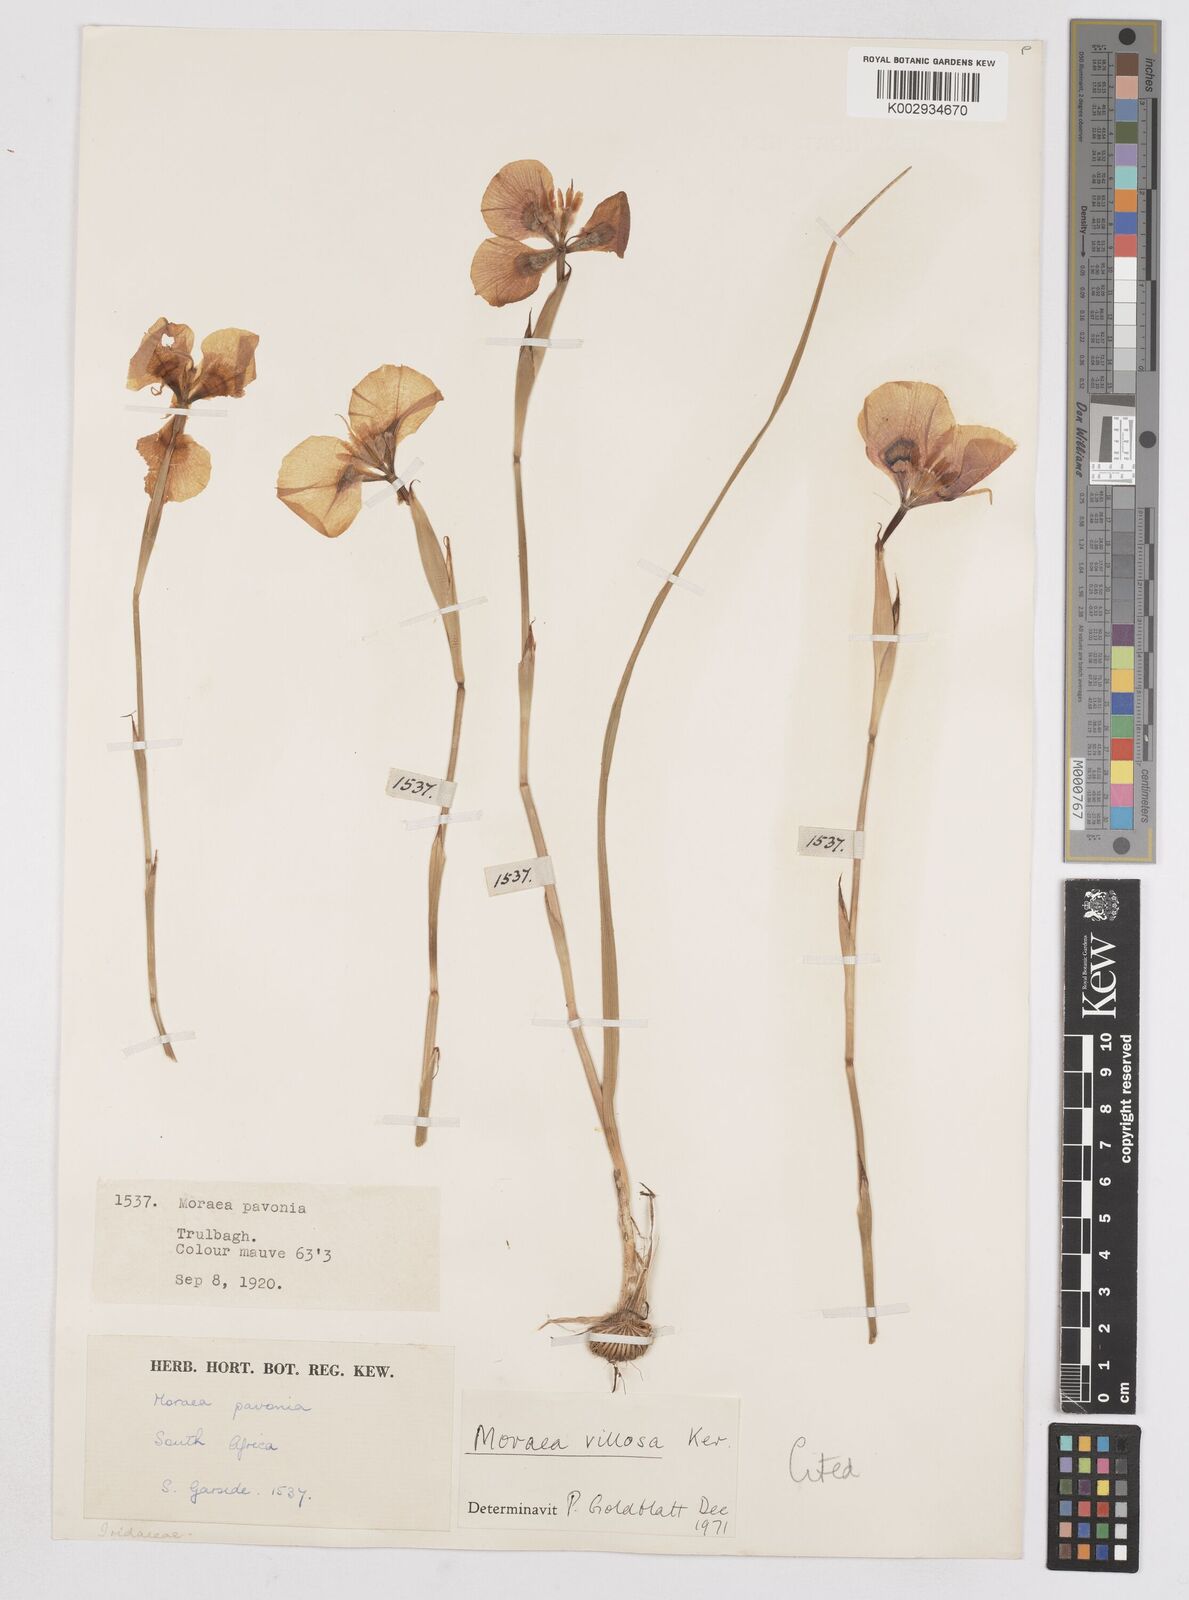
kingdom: Plantae
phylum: Tracheophyta
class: Liliopsida
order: Asparagales
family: Iridaceae
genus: Moraea
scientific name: Moraea villosa
